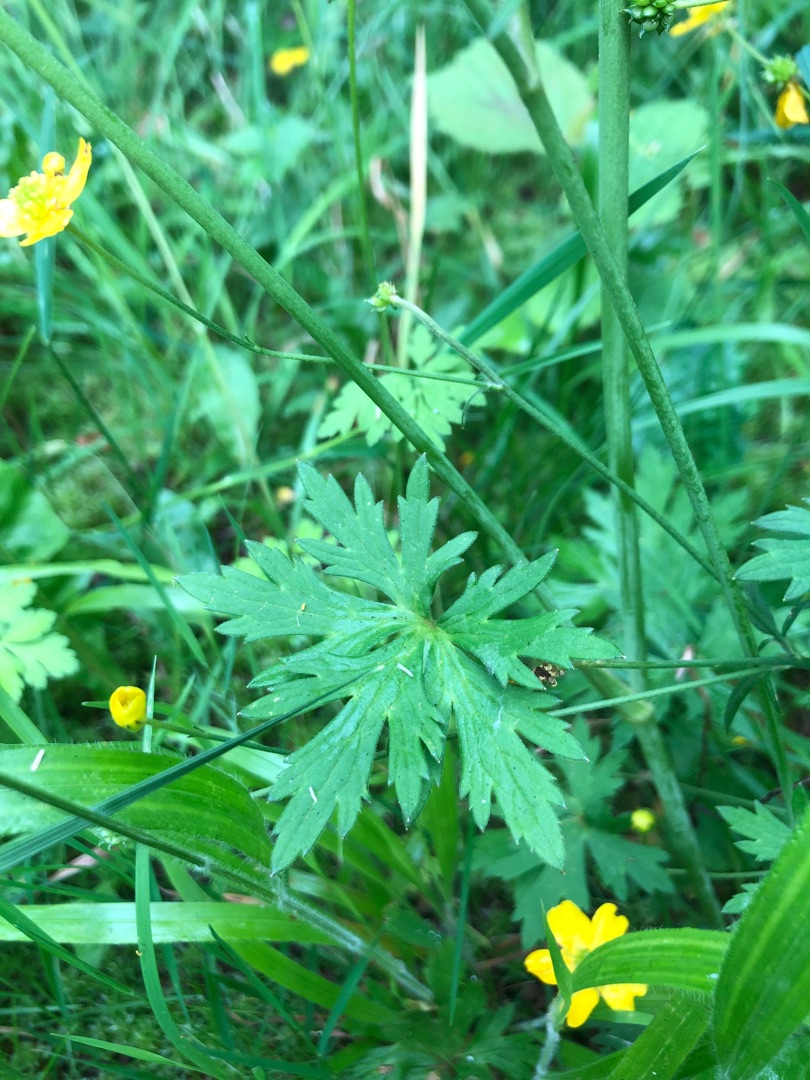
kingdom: Plantae
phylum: Tracheophyta
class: Magnoliopsida
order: Ranunculales
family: Ranunculaceae
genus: Ranunculus
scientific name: Ranunculus acris
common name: Bidende ranunkel
